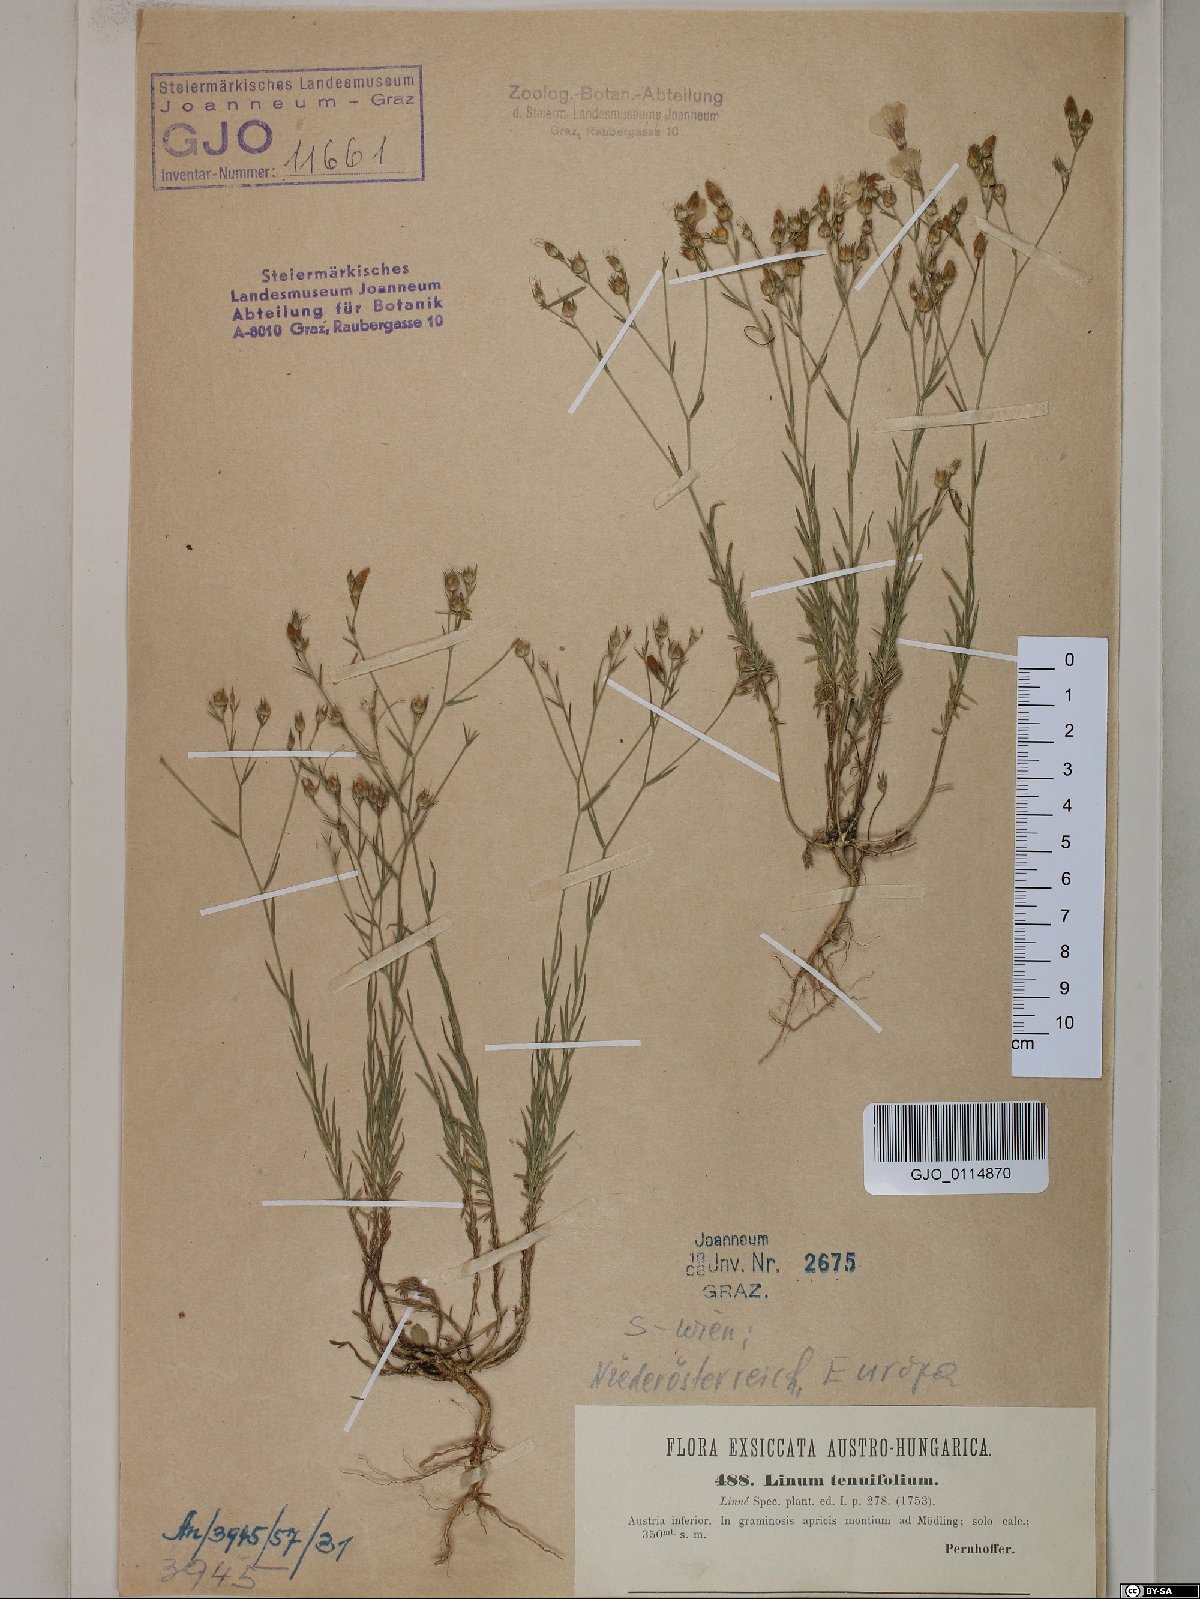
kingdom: Plantae
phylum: Tracheophyta
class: Magnoliopsida
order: Malpighiales
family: Linaceae
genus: Linum
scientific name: Linum tenuifolium
